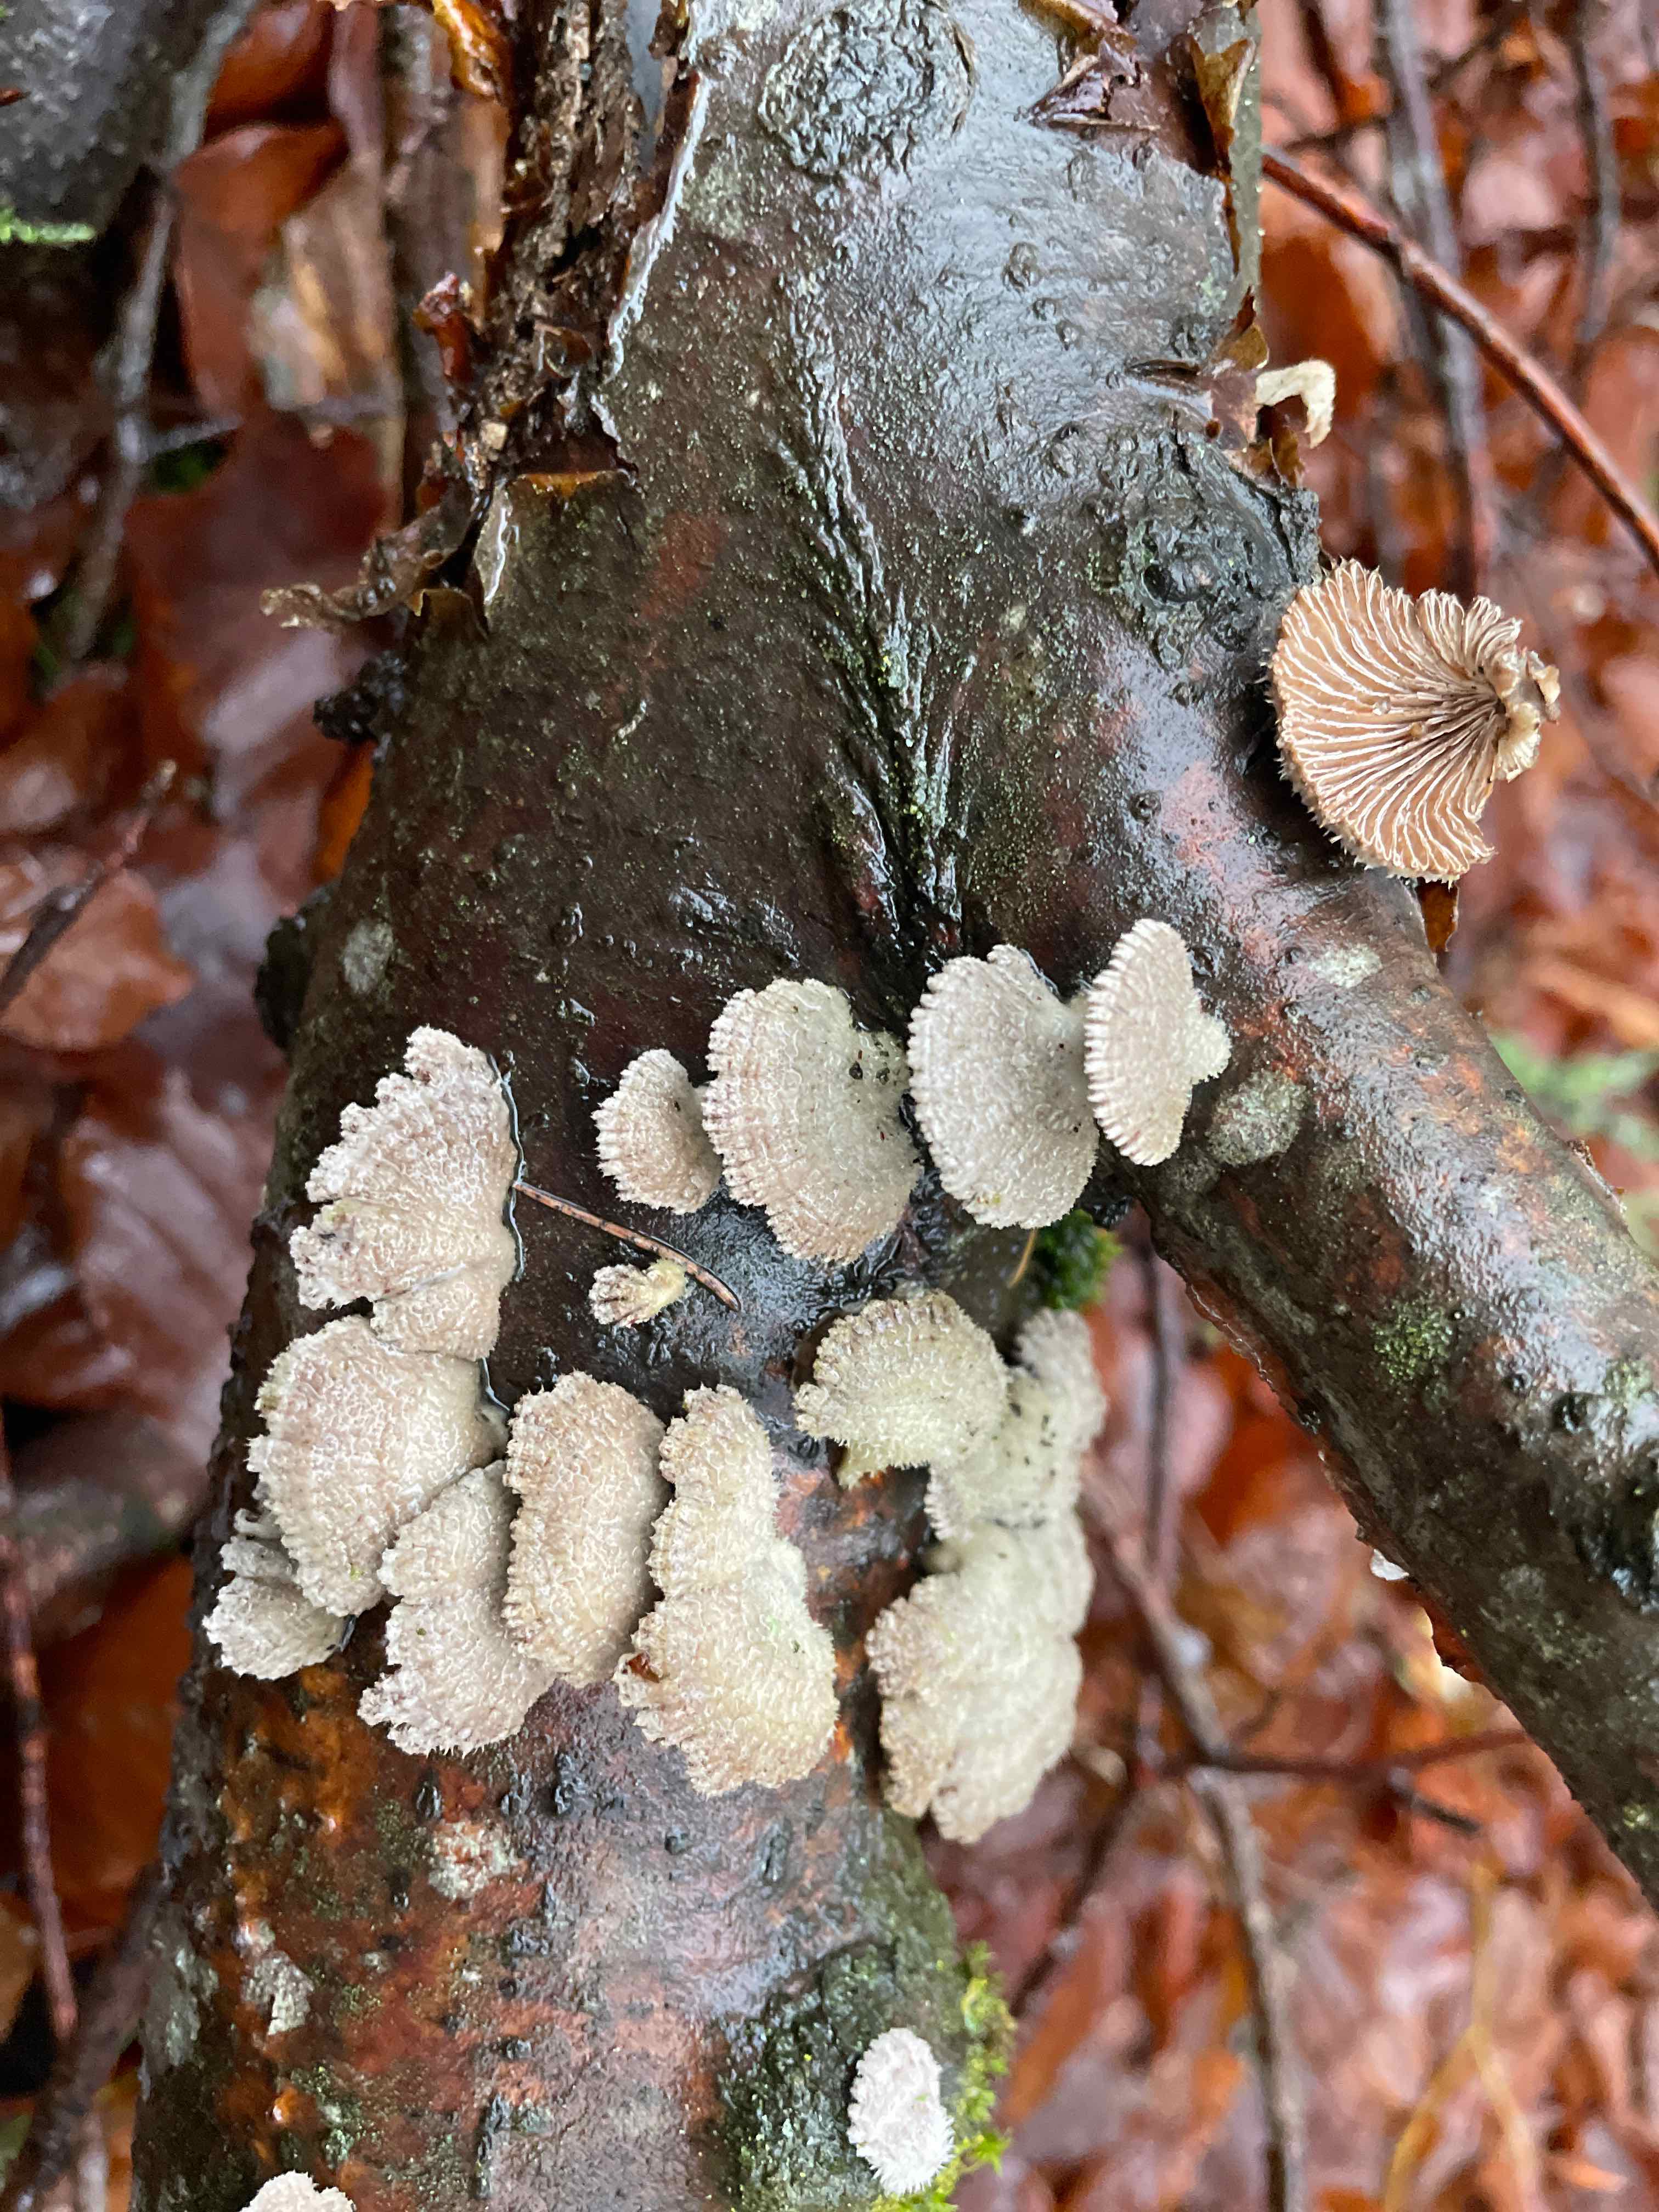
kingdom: Fungi
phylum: Basidiomycota
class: Agaricomycetes
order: Agaricales
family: Schizophyllaceae
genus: Schizophyllum
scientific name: Schizophyllum commune
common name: kløvblad
